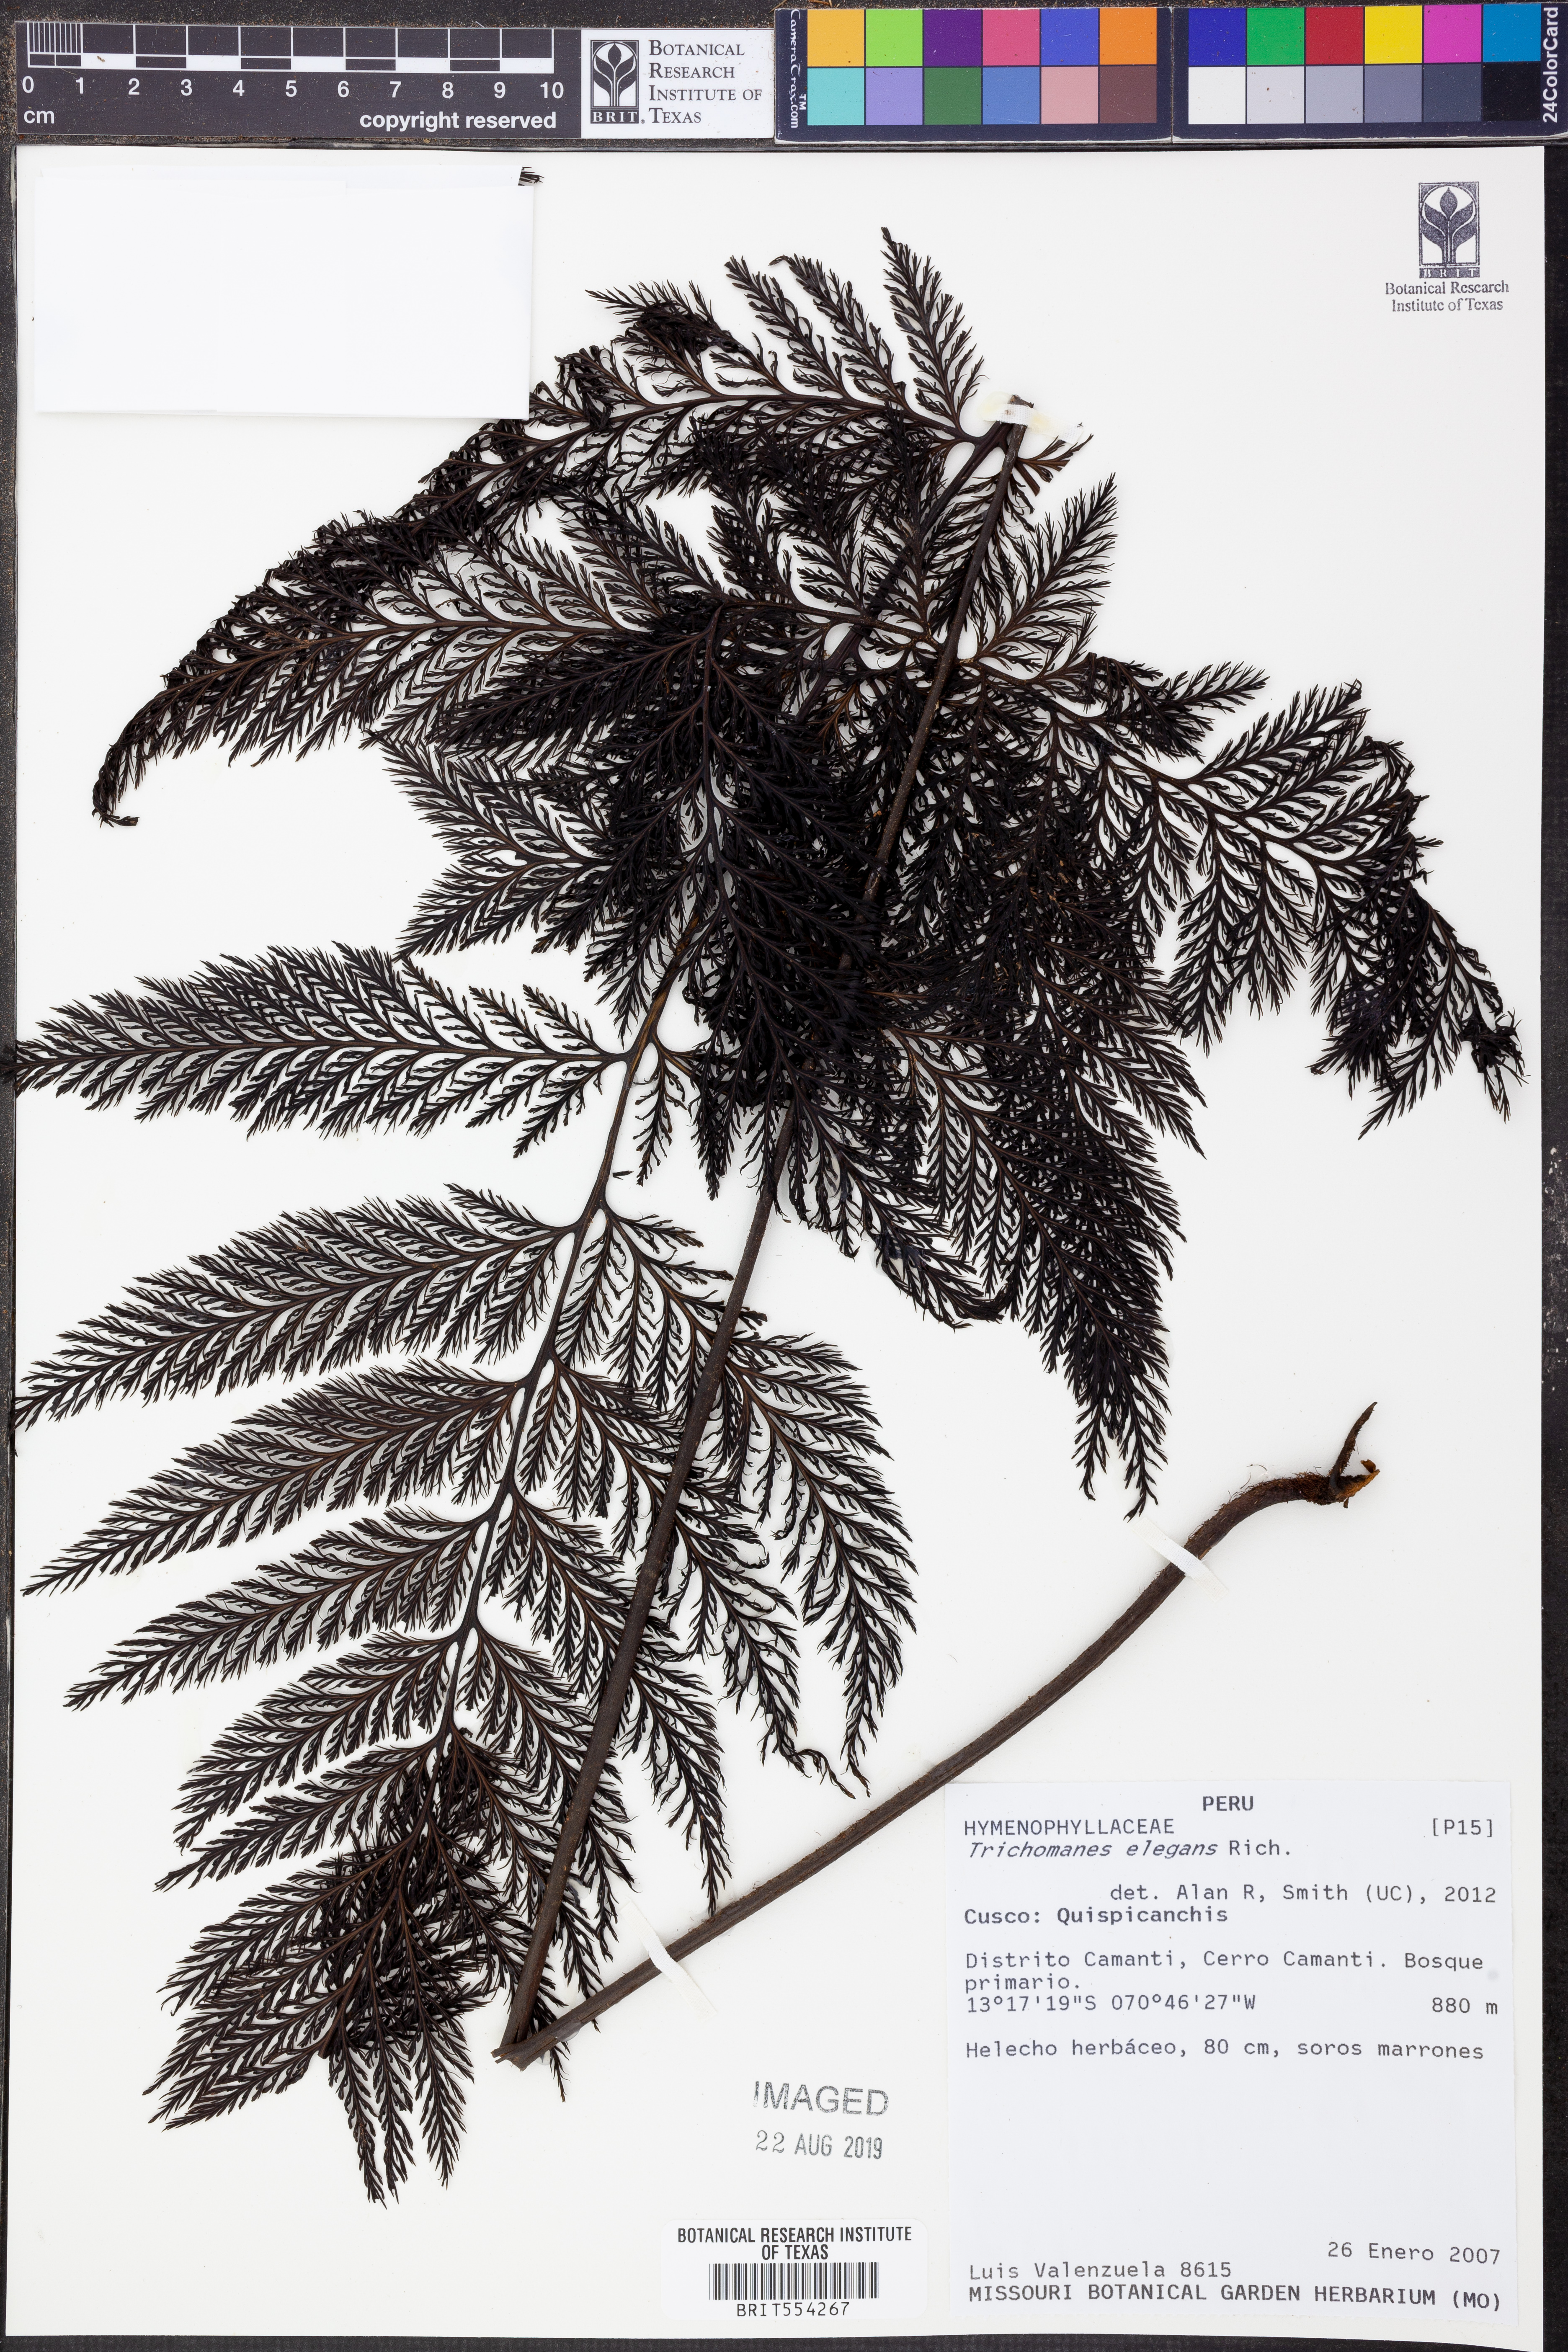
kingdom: Plantae
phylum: Tracheophyta
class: Polypodiopsida
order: Hymenophyllales
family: Hymenophyllaceae
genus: Trichomanes
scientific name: Trichomanes elegans
